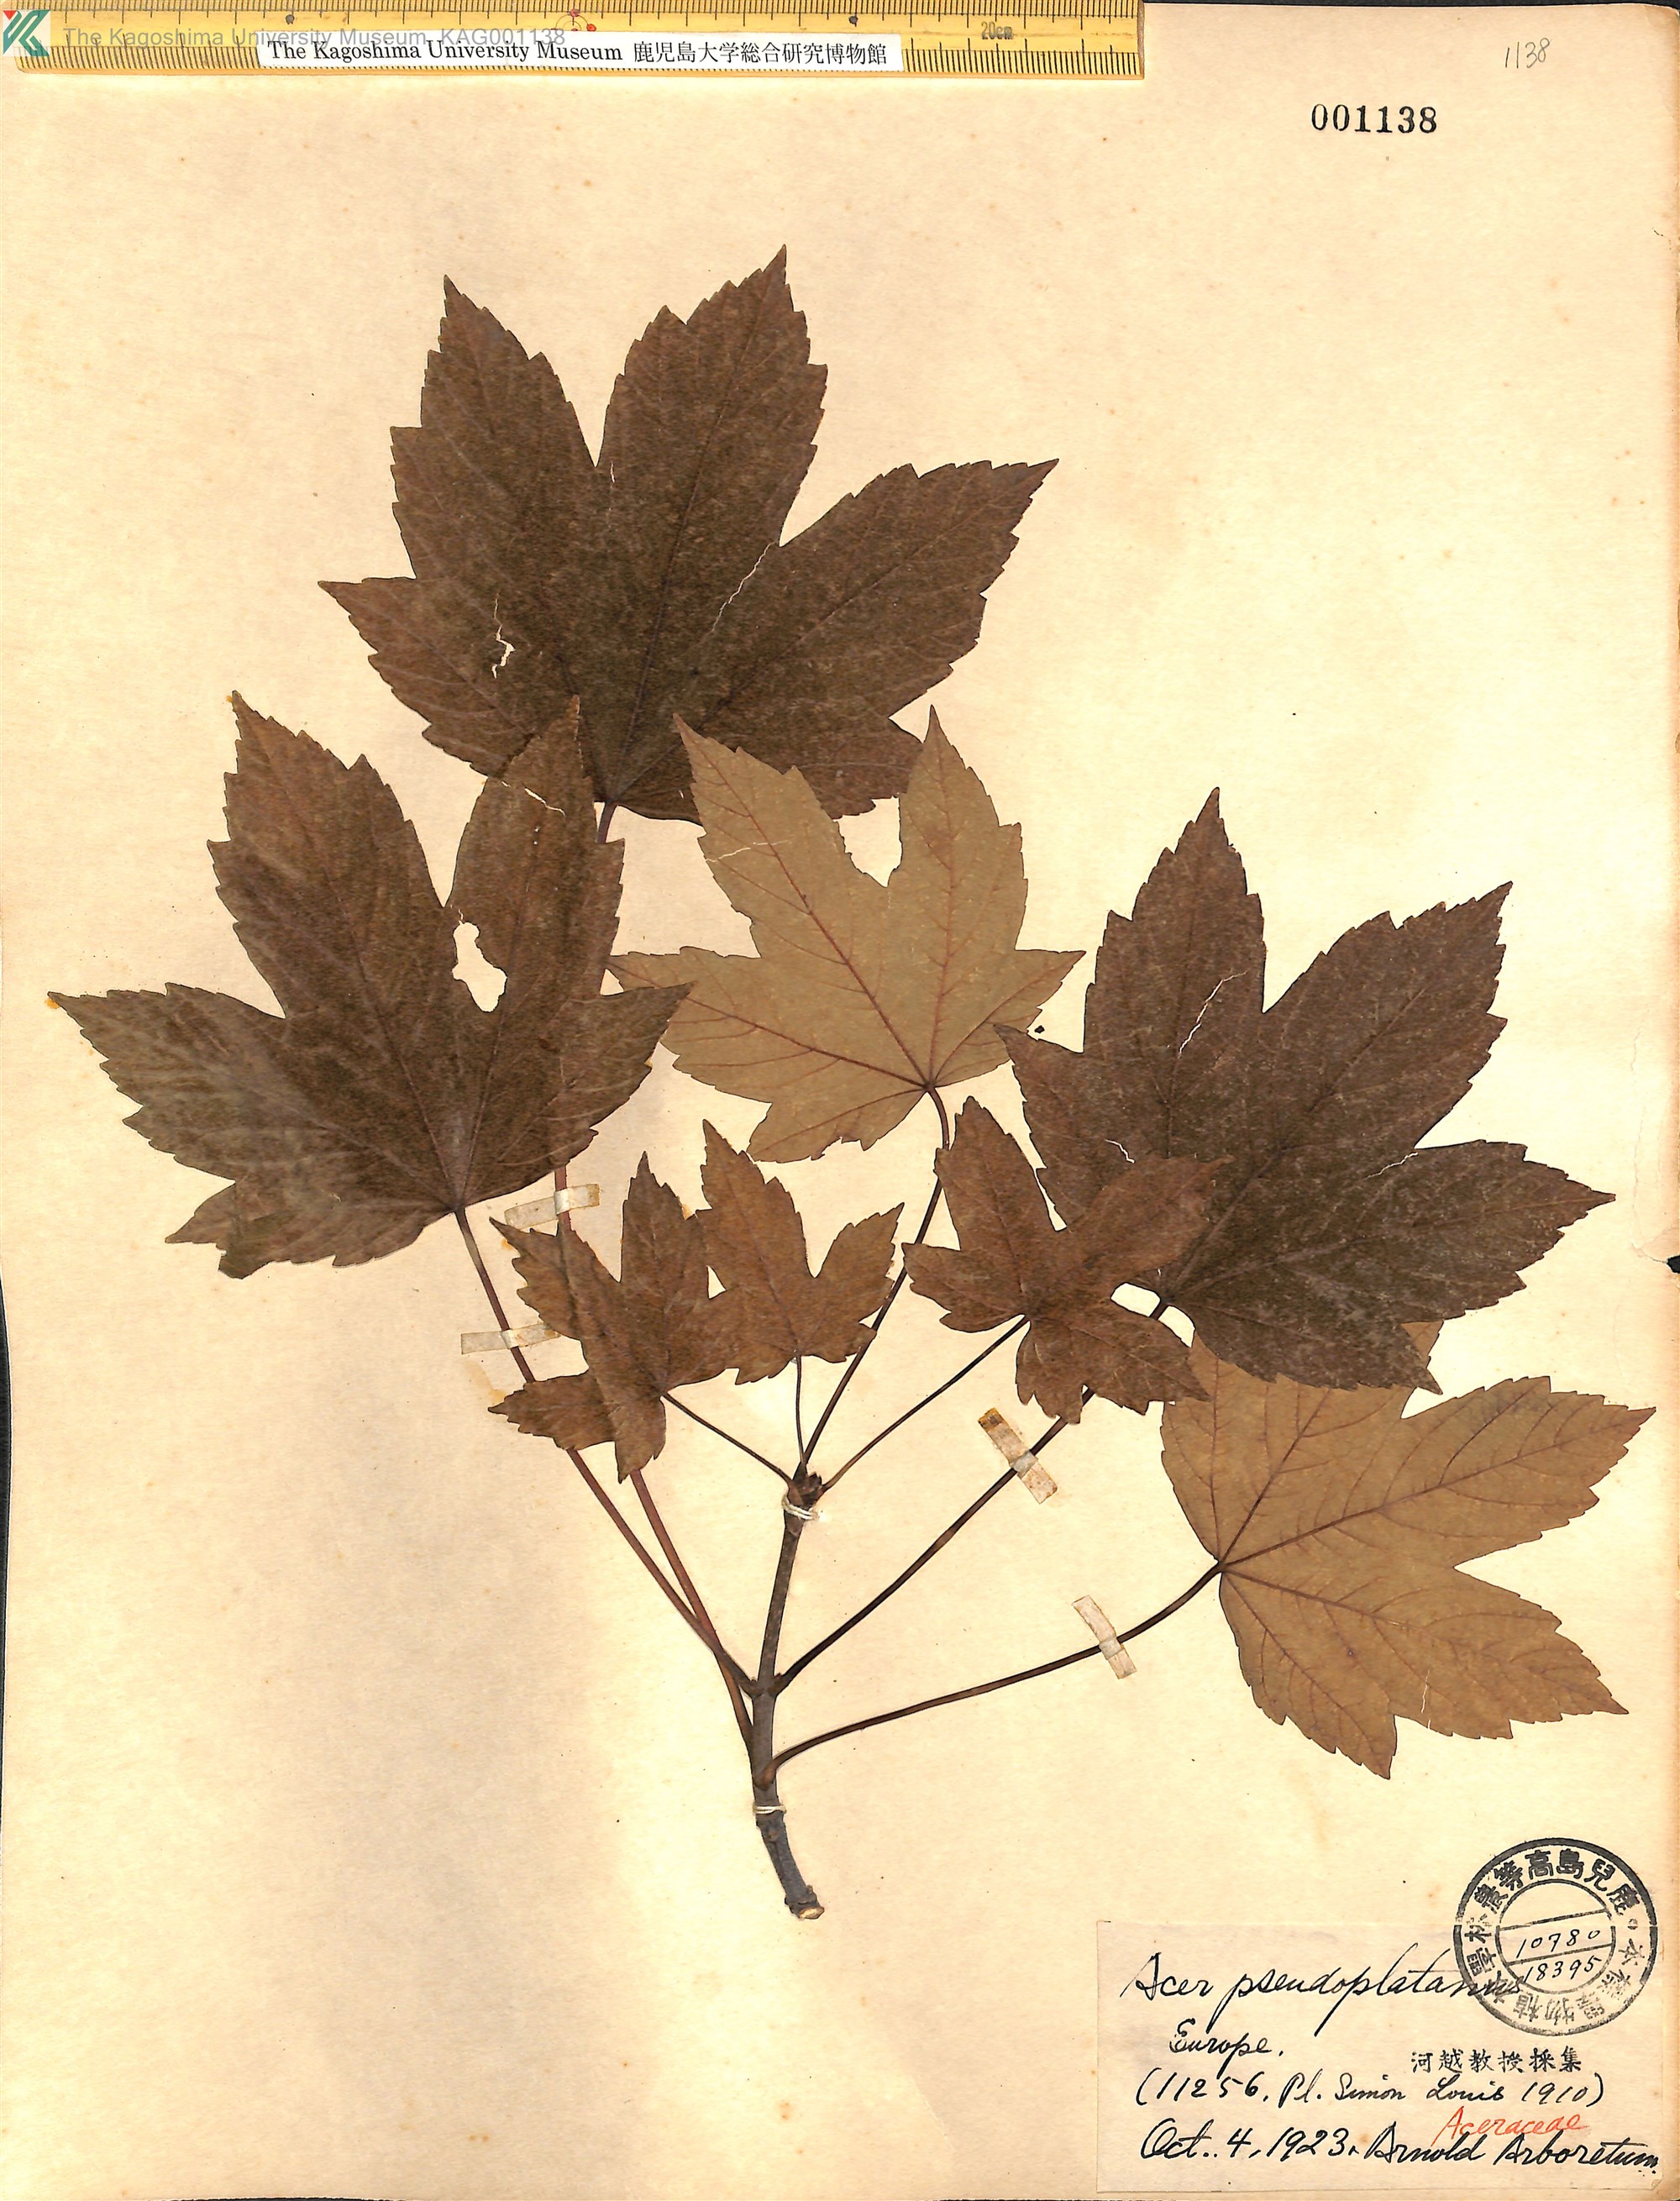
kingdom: Plantae
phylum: Tracheophyta
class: Magnoliopsida
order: Sapindales
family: Sapindaceae
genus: Acer
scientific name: Acer pseudoplatanus
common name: Sycamore
